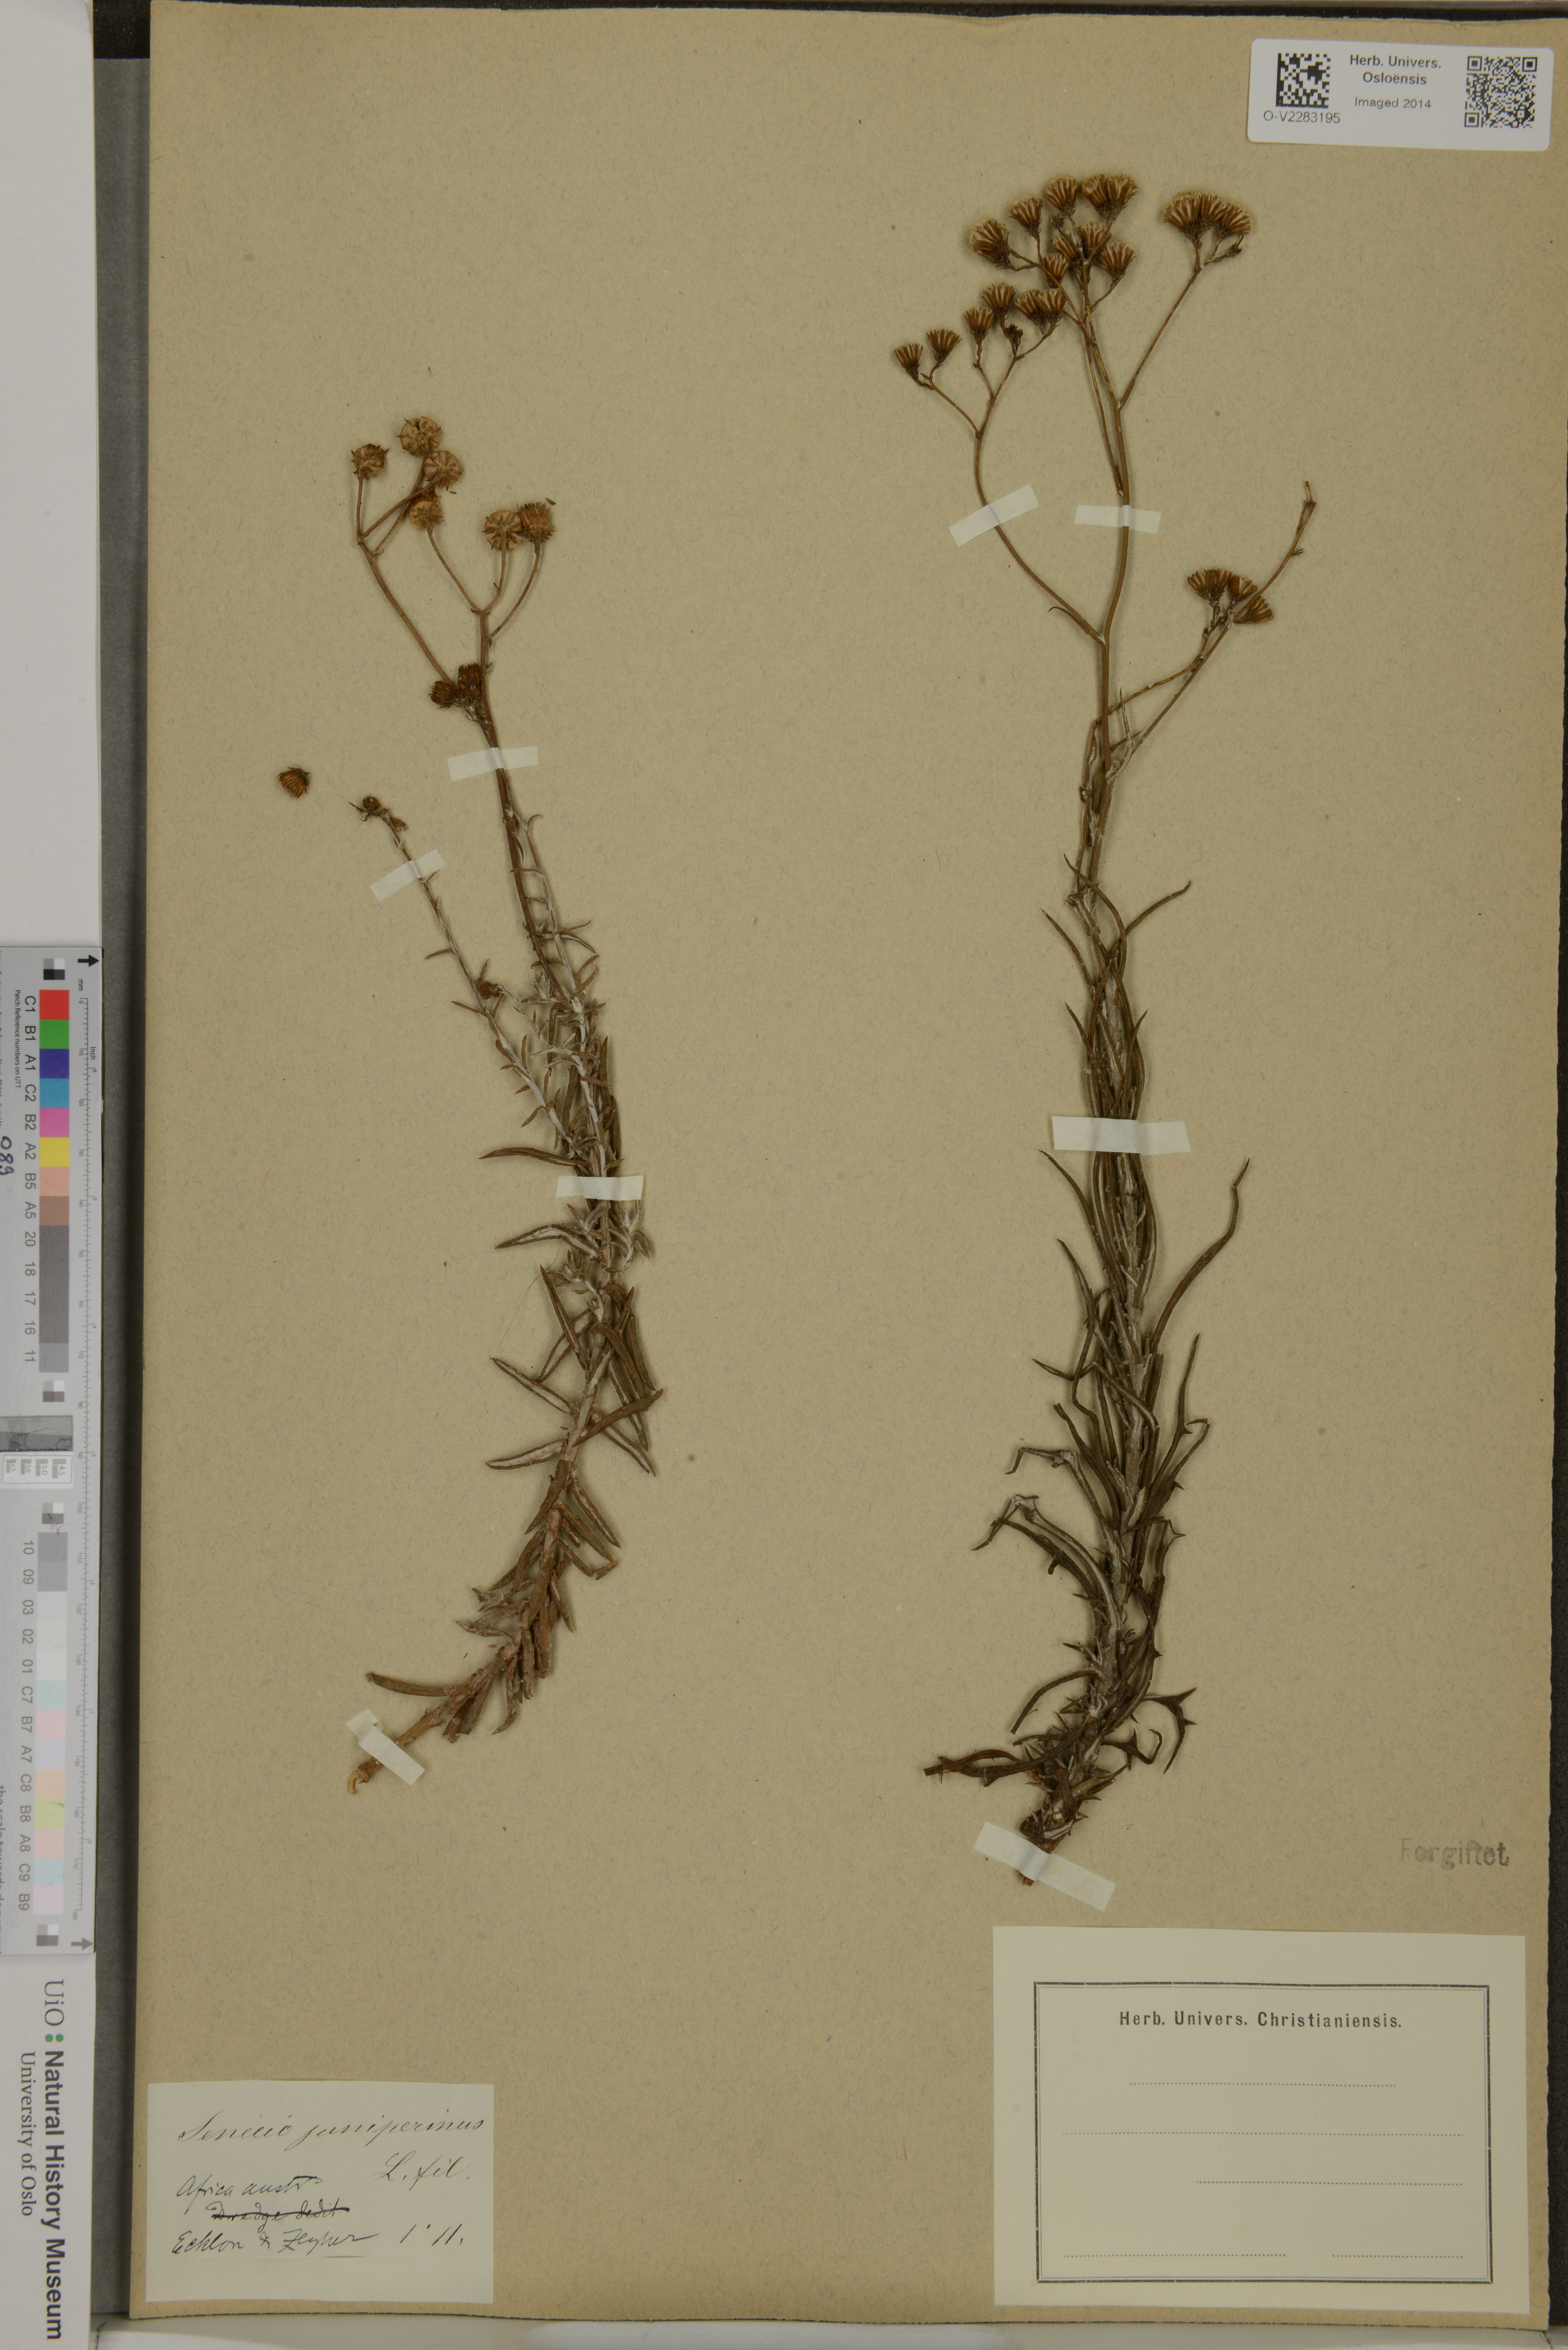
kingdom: Plantae
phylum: Tracheophyta
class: Magnoliopsida
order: Asterales
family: Asteraceae
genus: Senecio
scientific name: Senecio juniperinus
